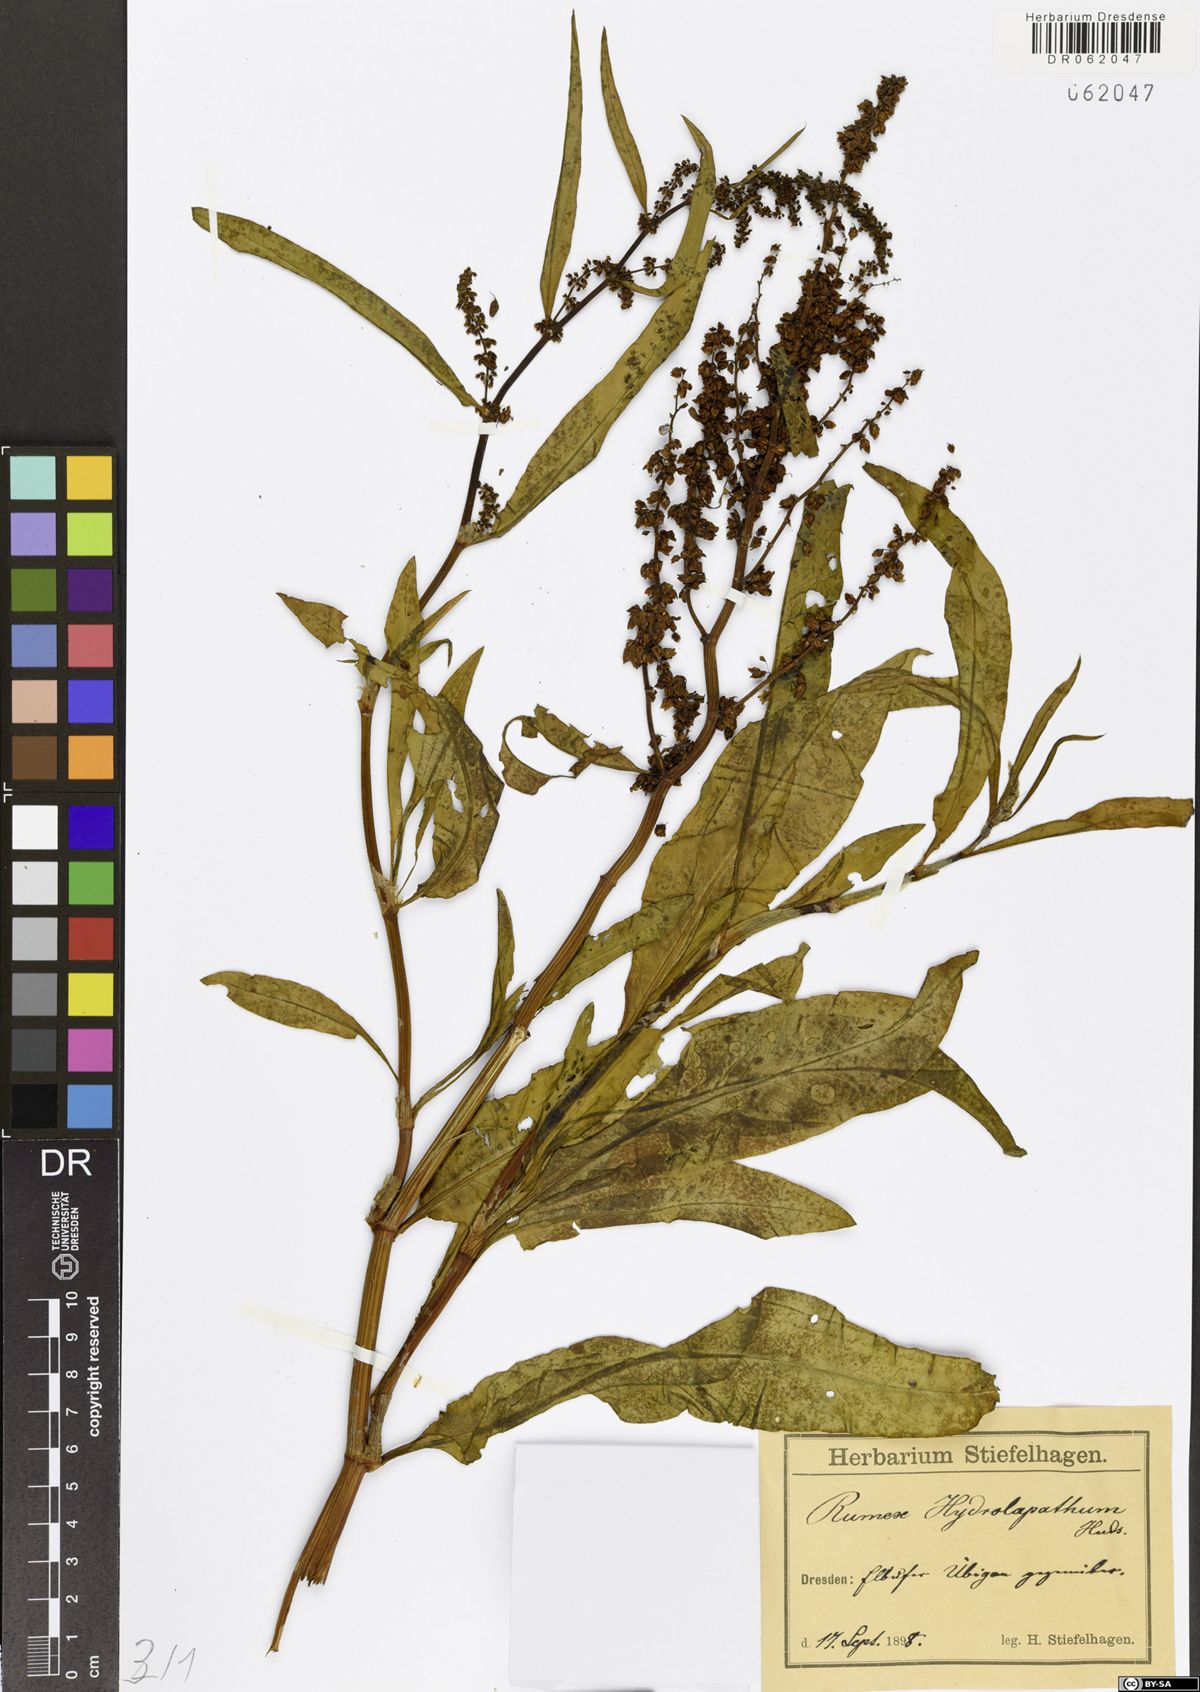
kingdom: Plantae
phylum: Tracheophyta
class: Magnoliopsida
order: Caryophyllales
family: Polygonaceae
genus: Rumex
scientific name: Rumex hydrolapathum
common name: Water dock
